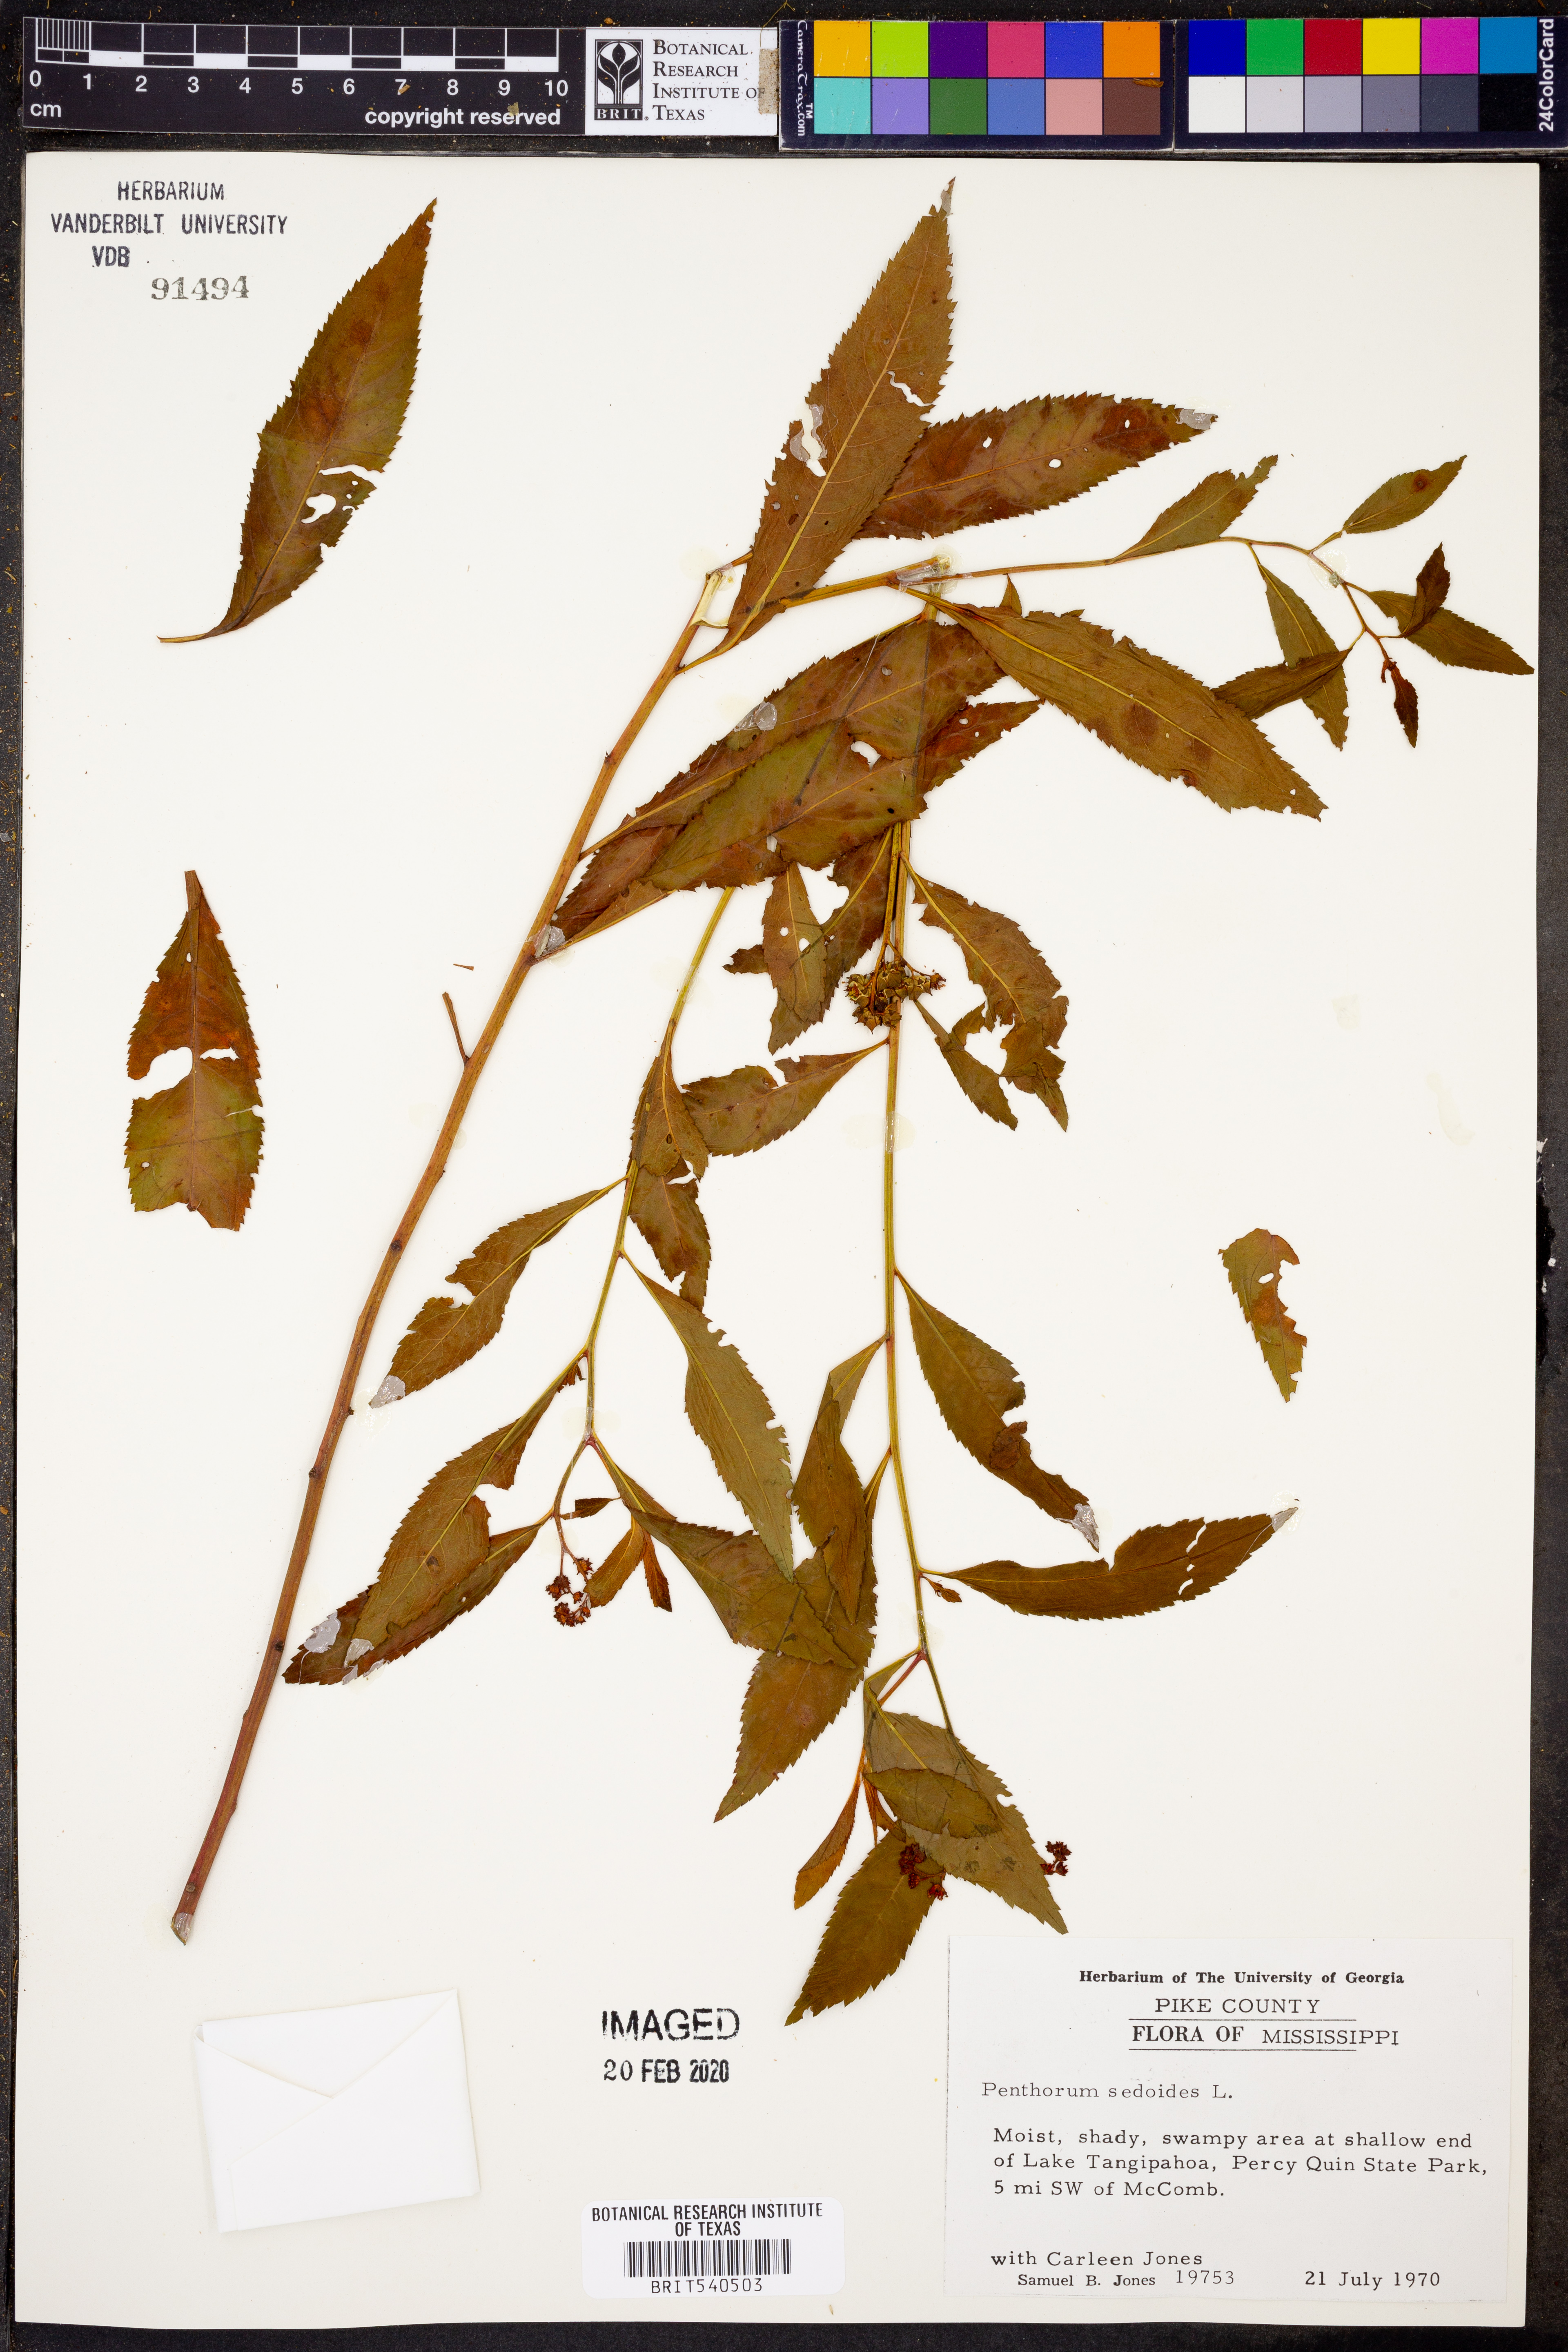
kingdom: Plantae
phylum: Tracheophyta
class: Magnoliopsida
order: Saxifragales
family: Penthoraceae
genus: Penthorum
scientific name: Penthorum sedoides
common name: Ditch stonecrop
